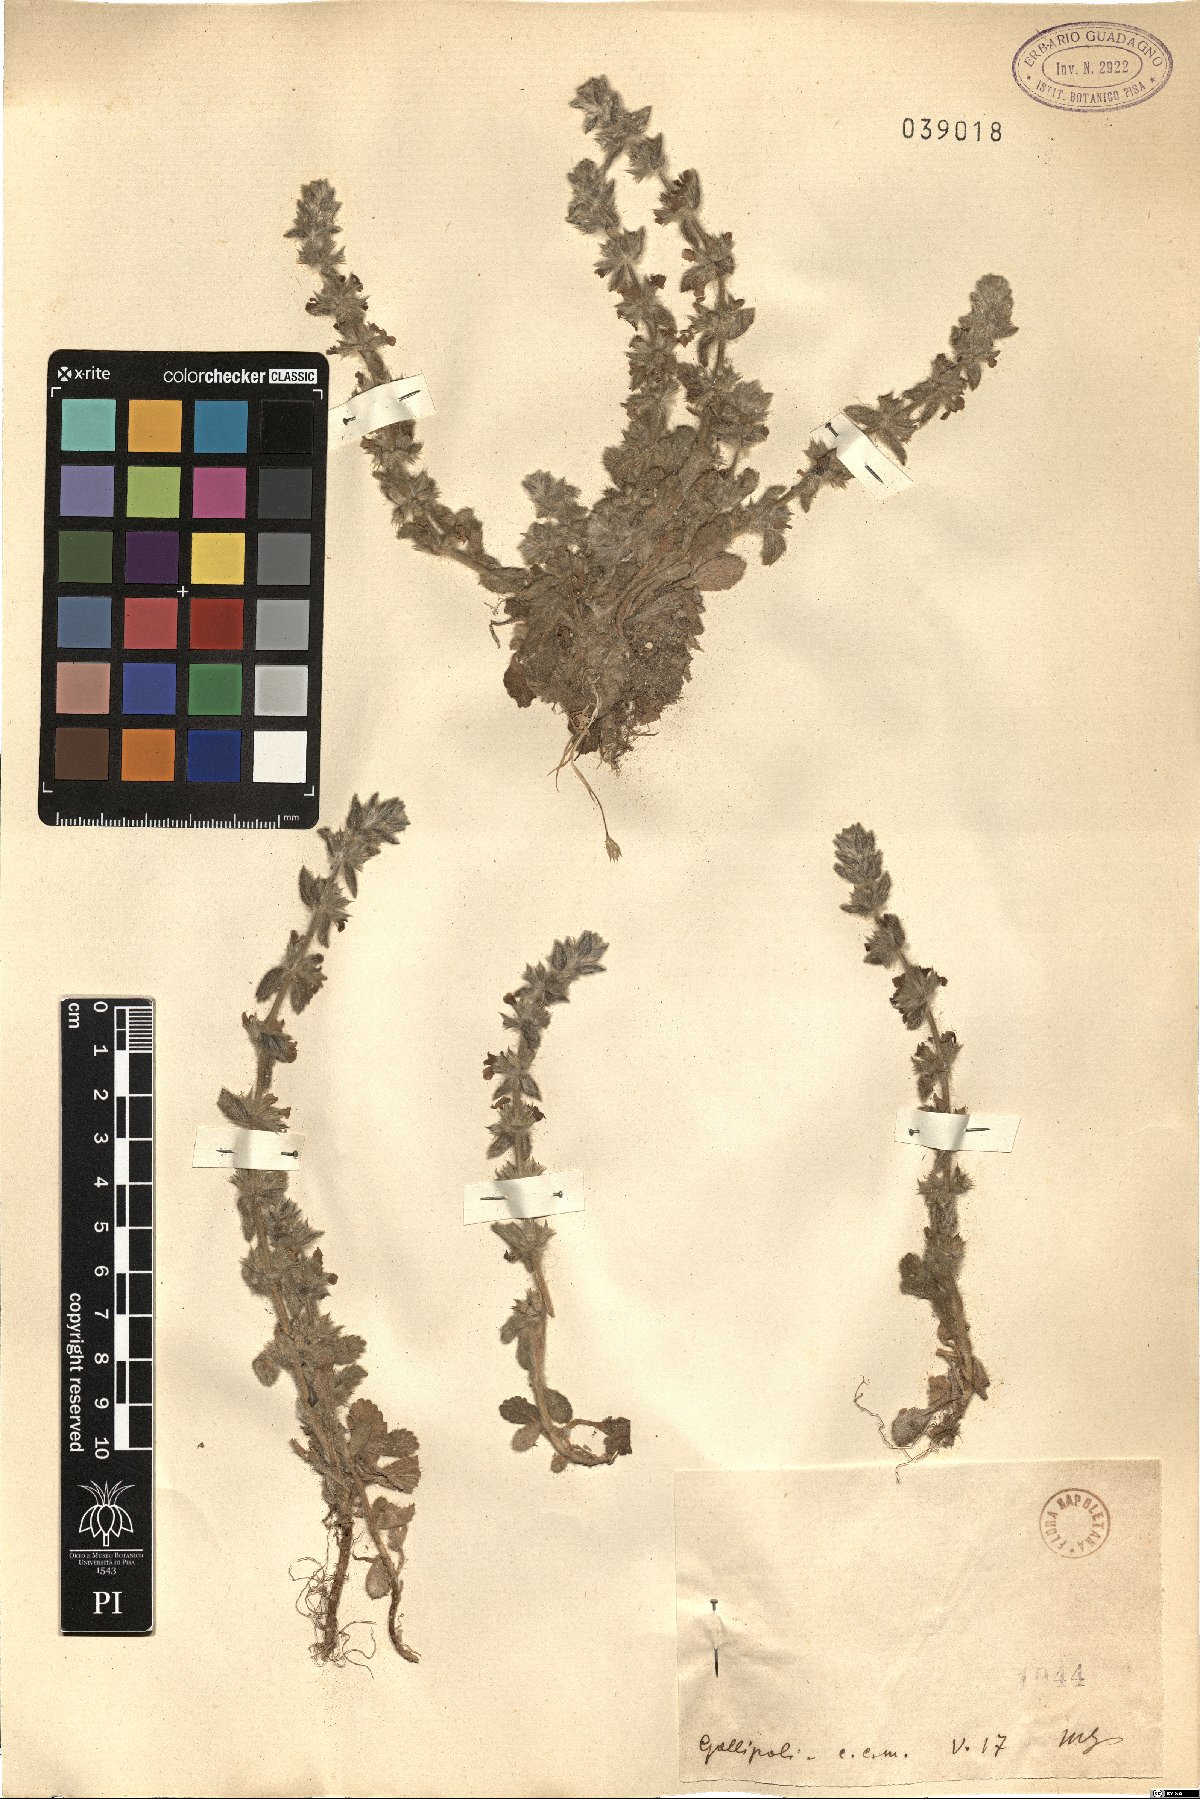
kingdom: Plantae
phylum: Tracheophyta
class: Magnoliopsida
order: Lamiales
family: Lamiaceae
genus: Sideritis
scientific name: Sideritis
